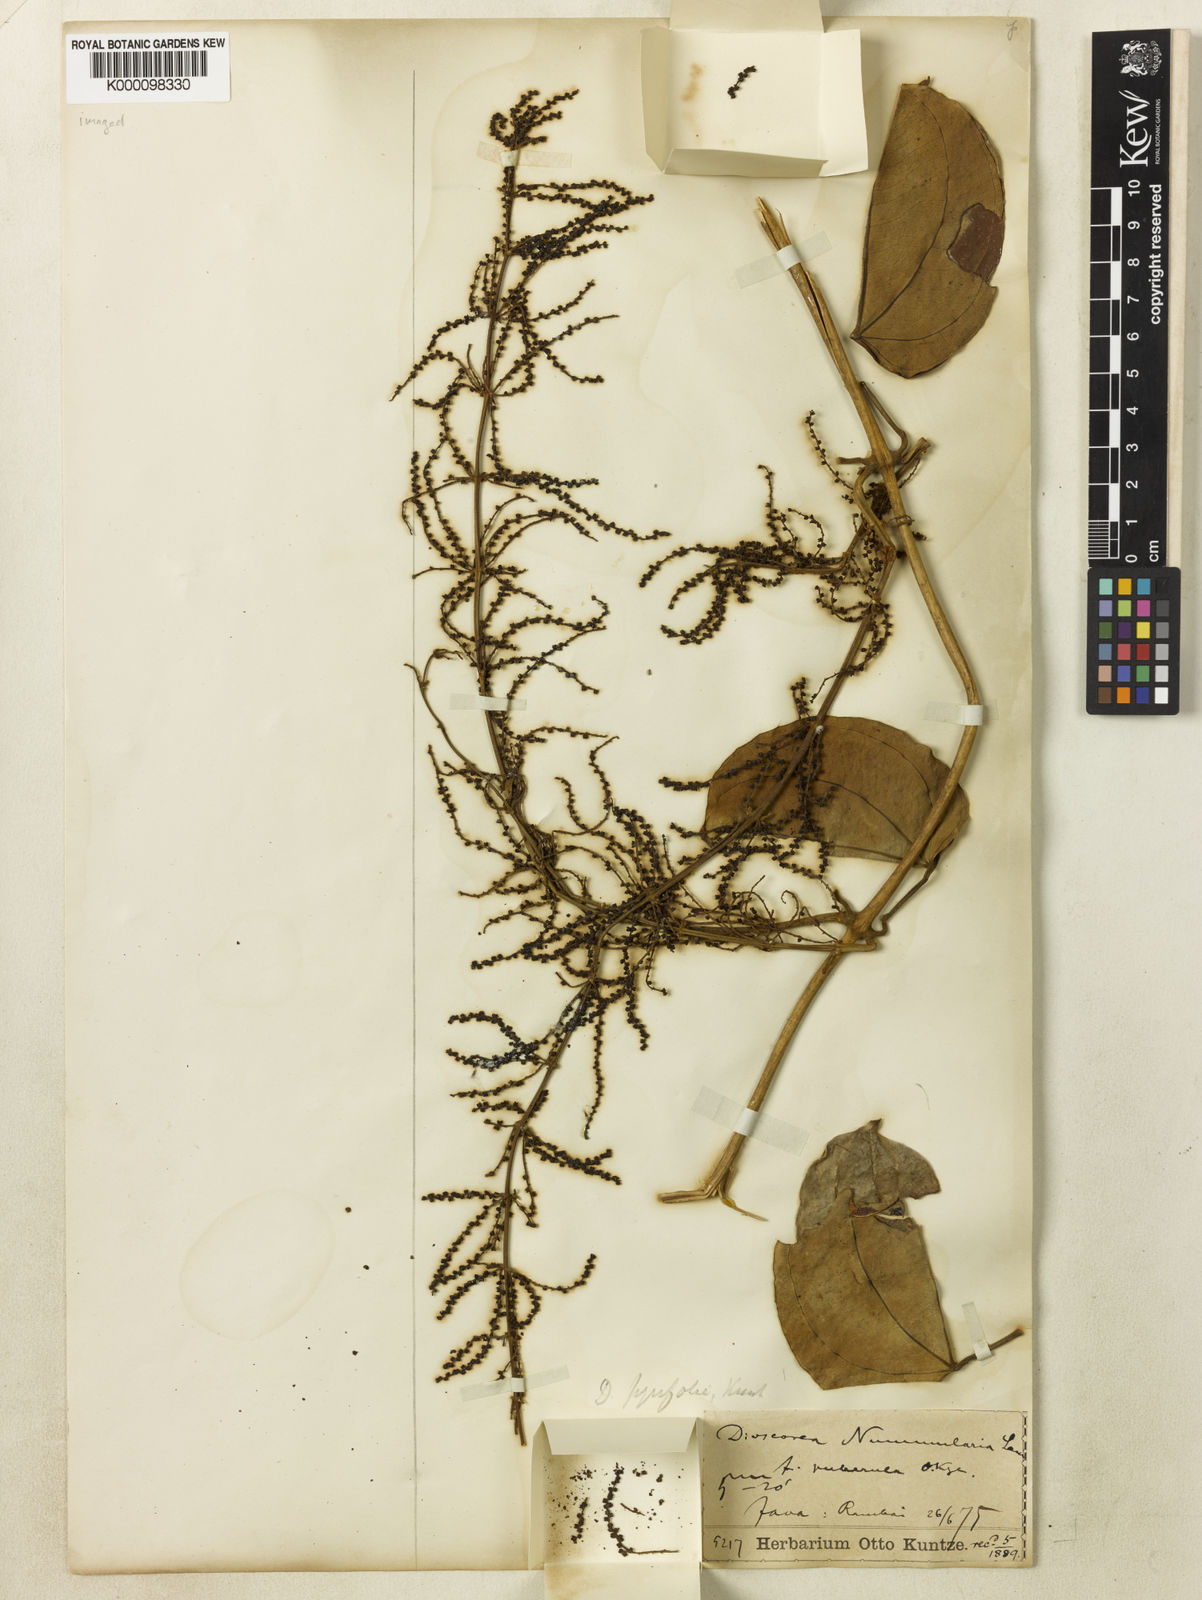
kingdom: Plantae
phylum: Tracheophyta
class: Liliopsida
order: Dioscoreales
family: Dioscoreaceae
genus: Dioscorea
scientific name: Dioscorea pyrifolia
